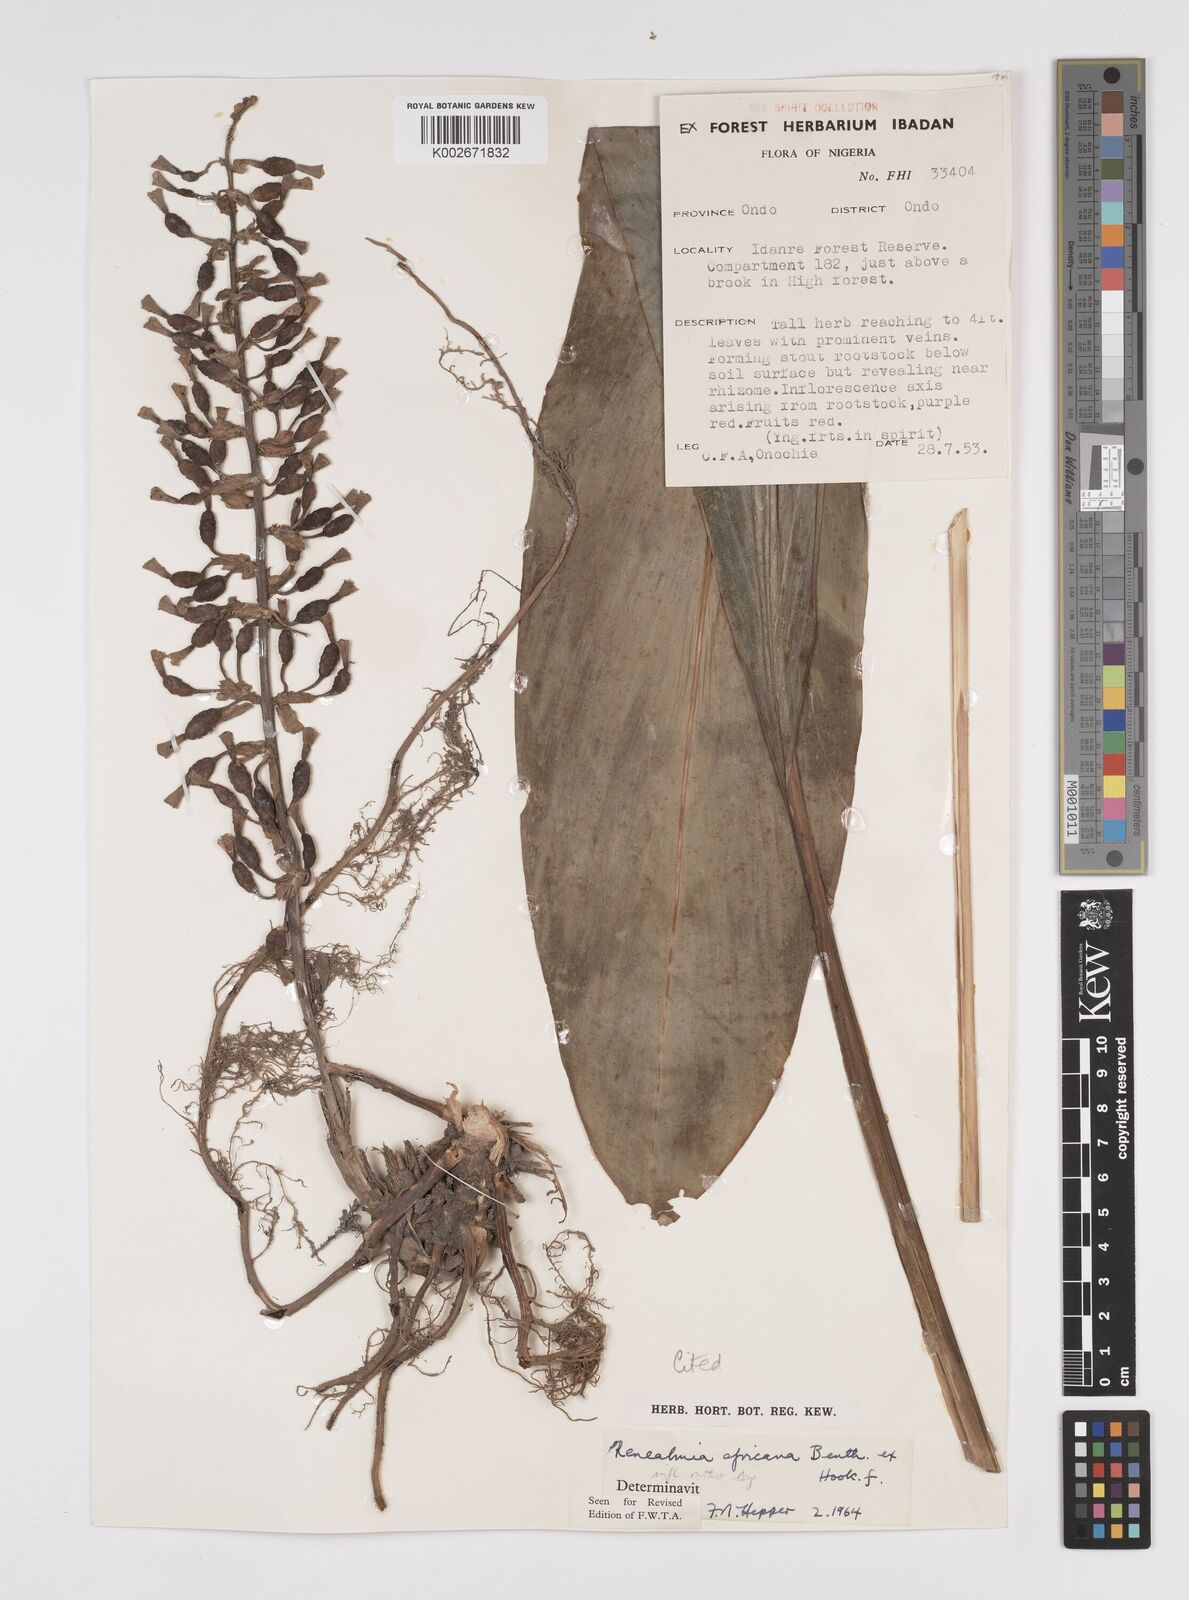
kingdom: Plantae
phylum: Tracheophyta
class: Liliopsida
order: Zingiberales
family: Zingiberaceae
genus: Renealmia
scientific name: Renealmia africana
